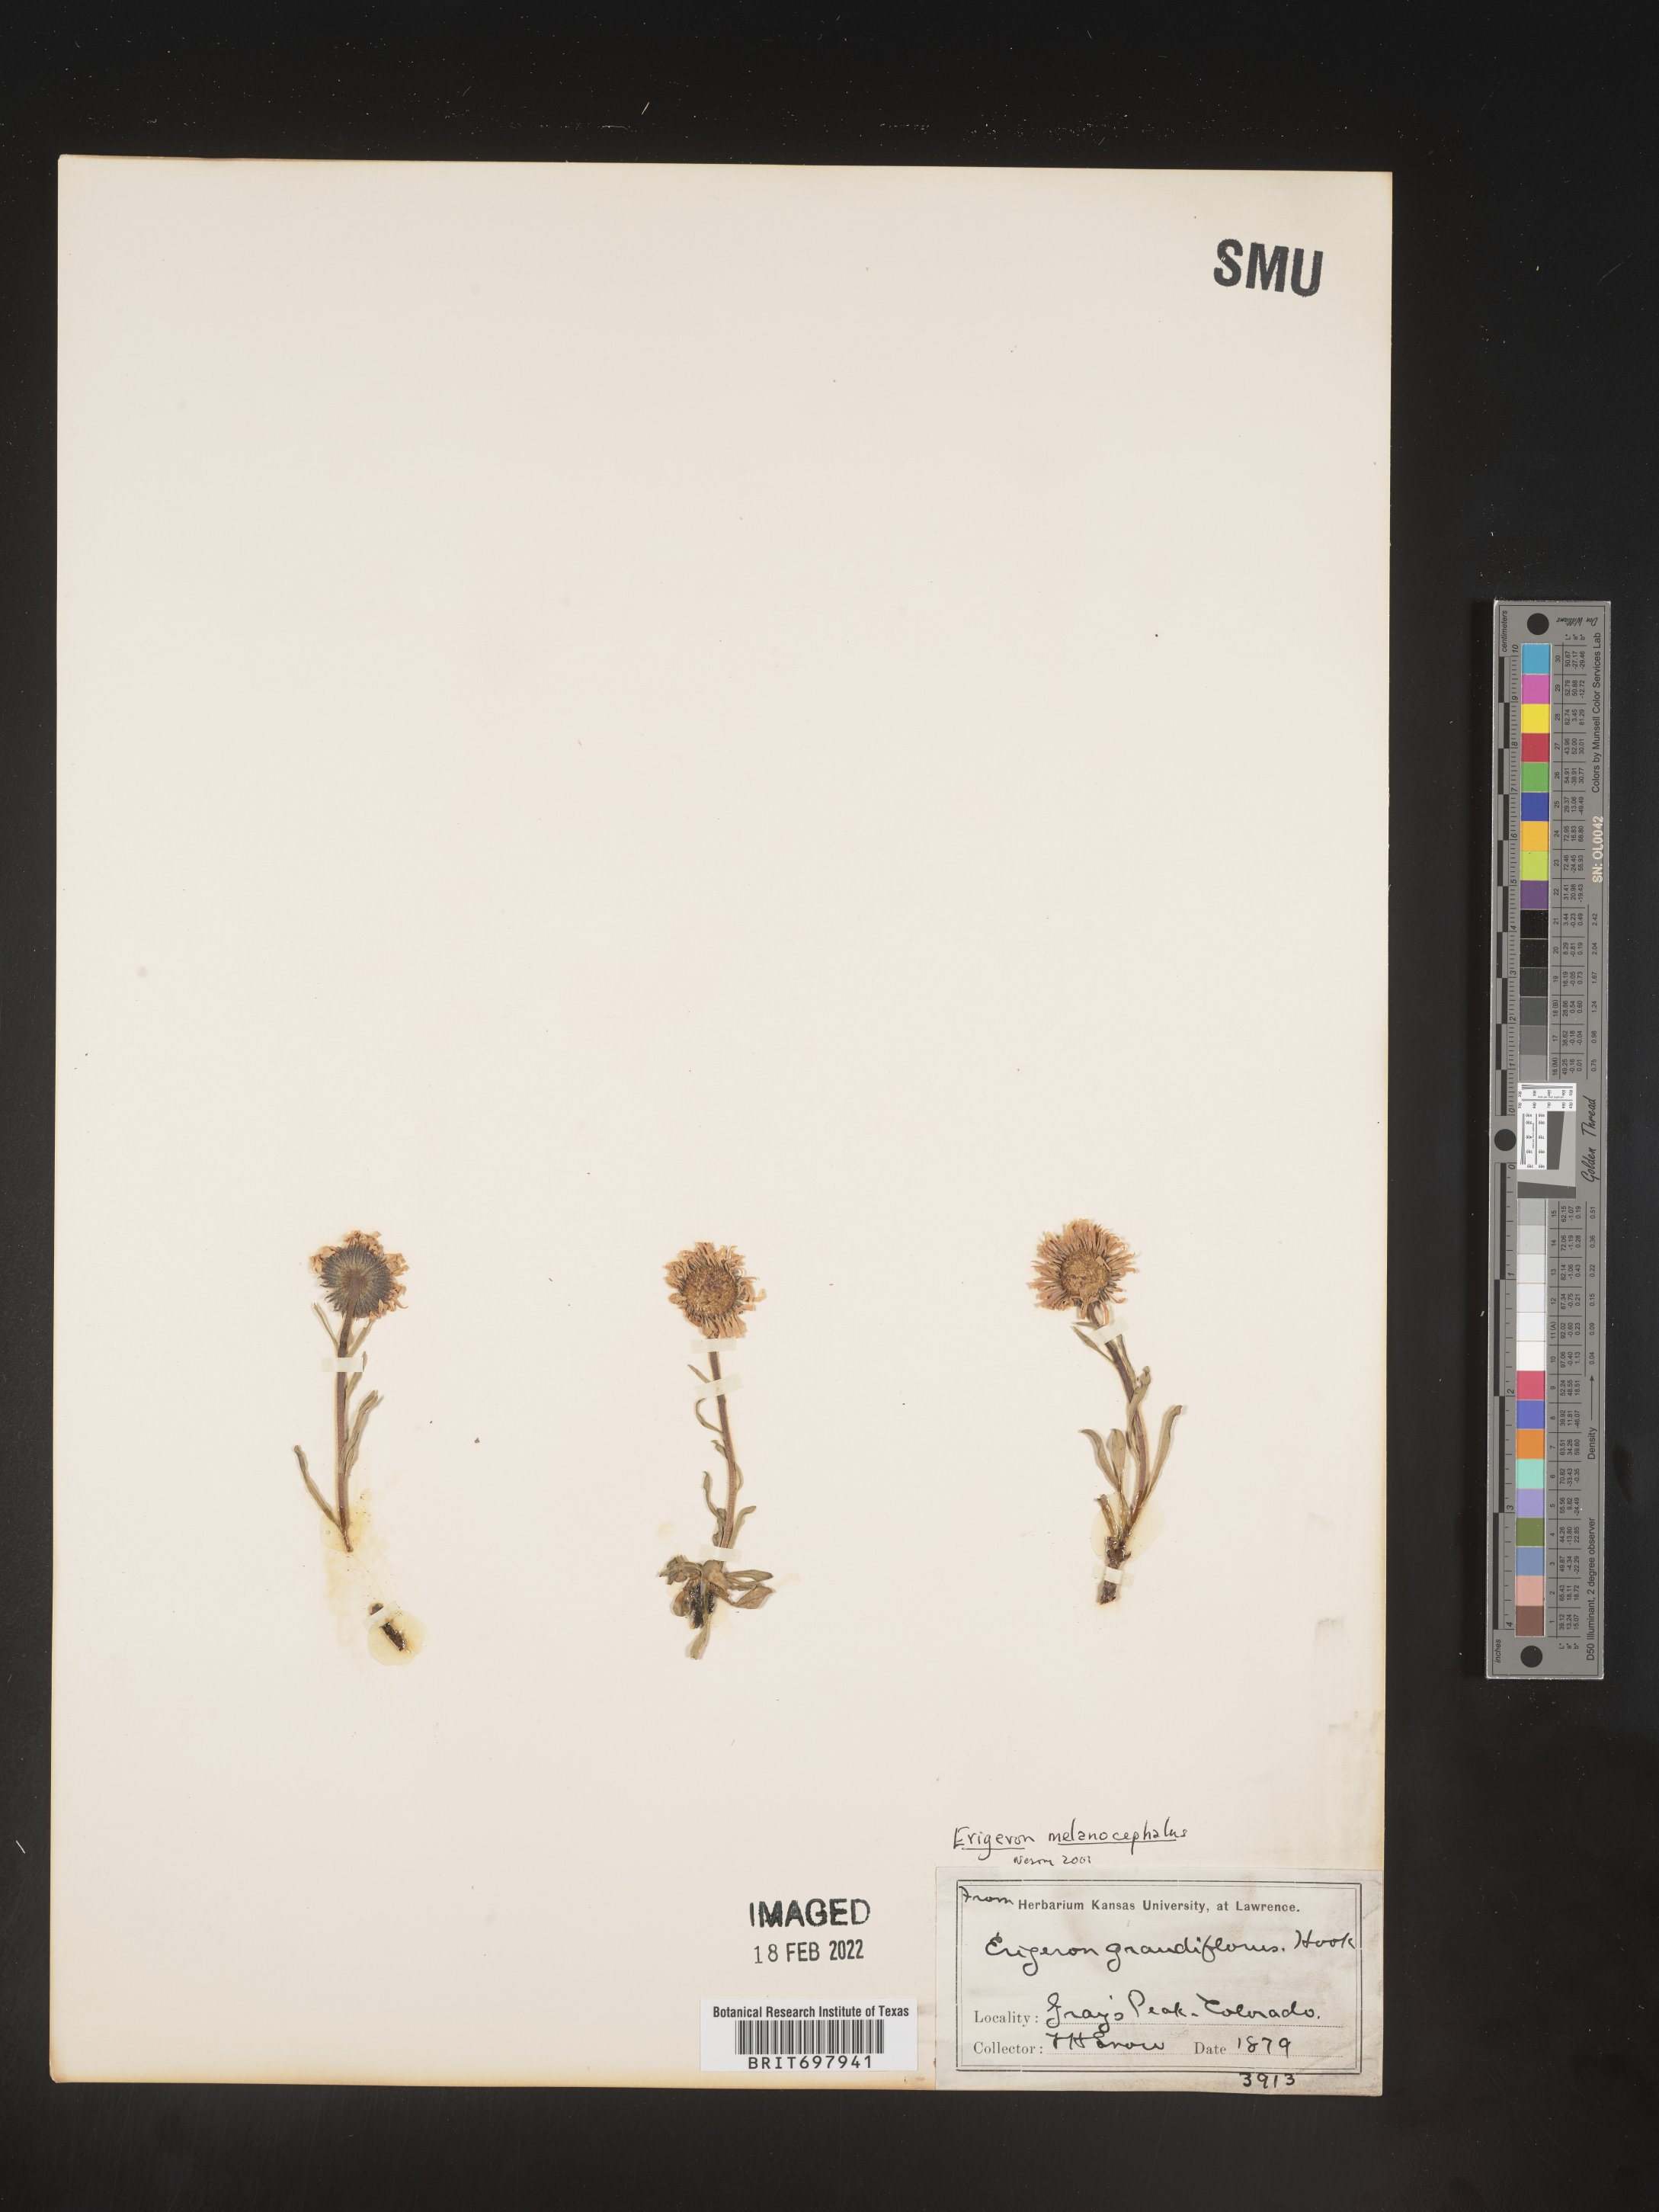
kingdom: Plantae
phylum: Tracheophyta
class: Magnoliopsida
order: Asterales
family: Asteraceae
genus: Erigeron
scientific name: Erigeron melanocephalus
